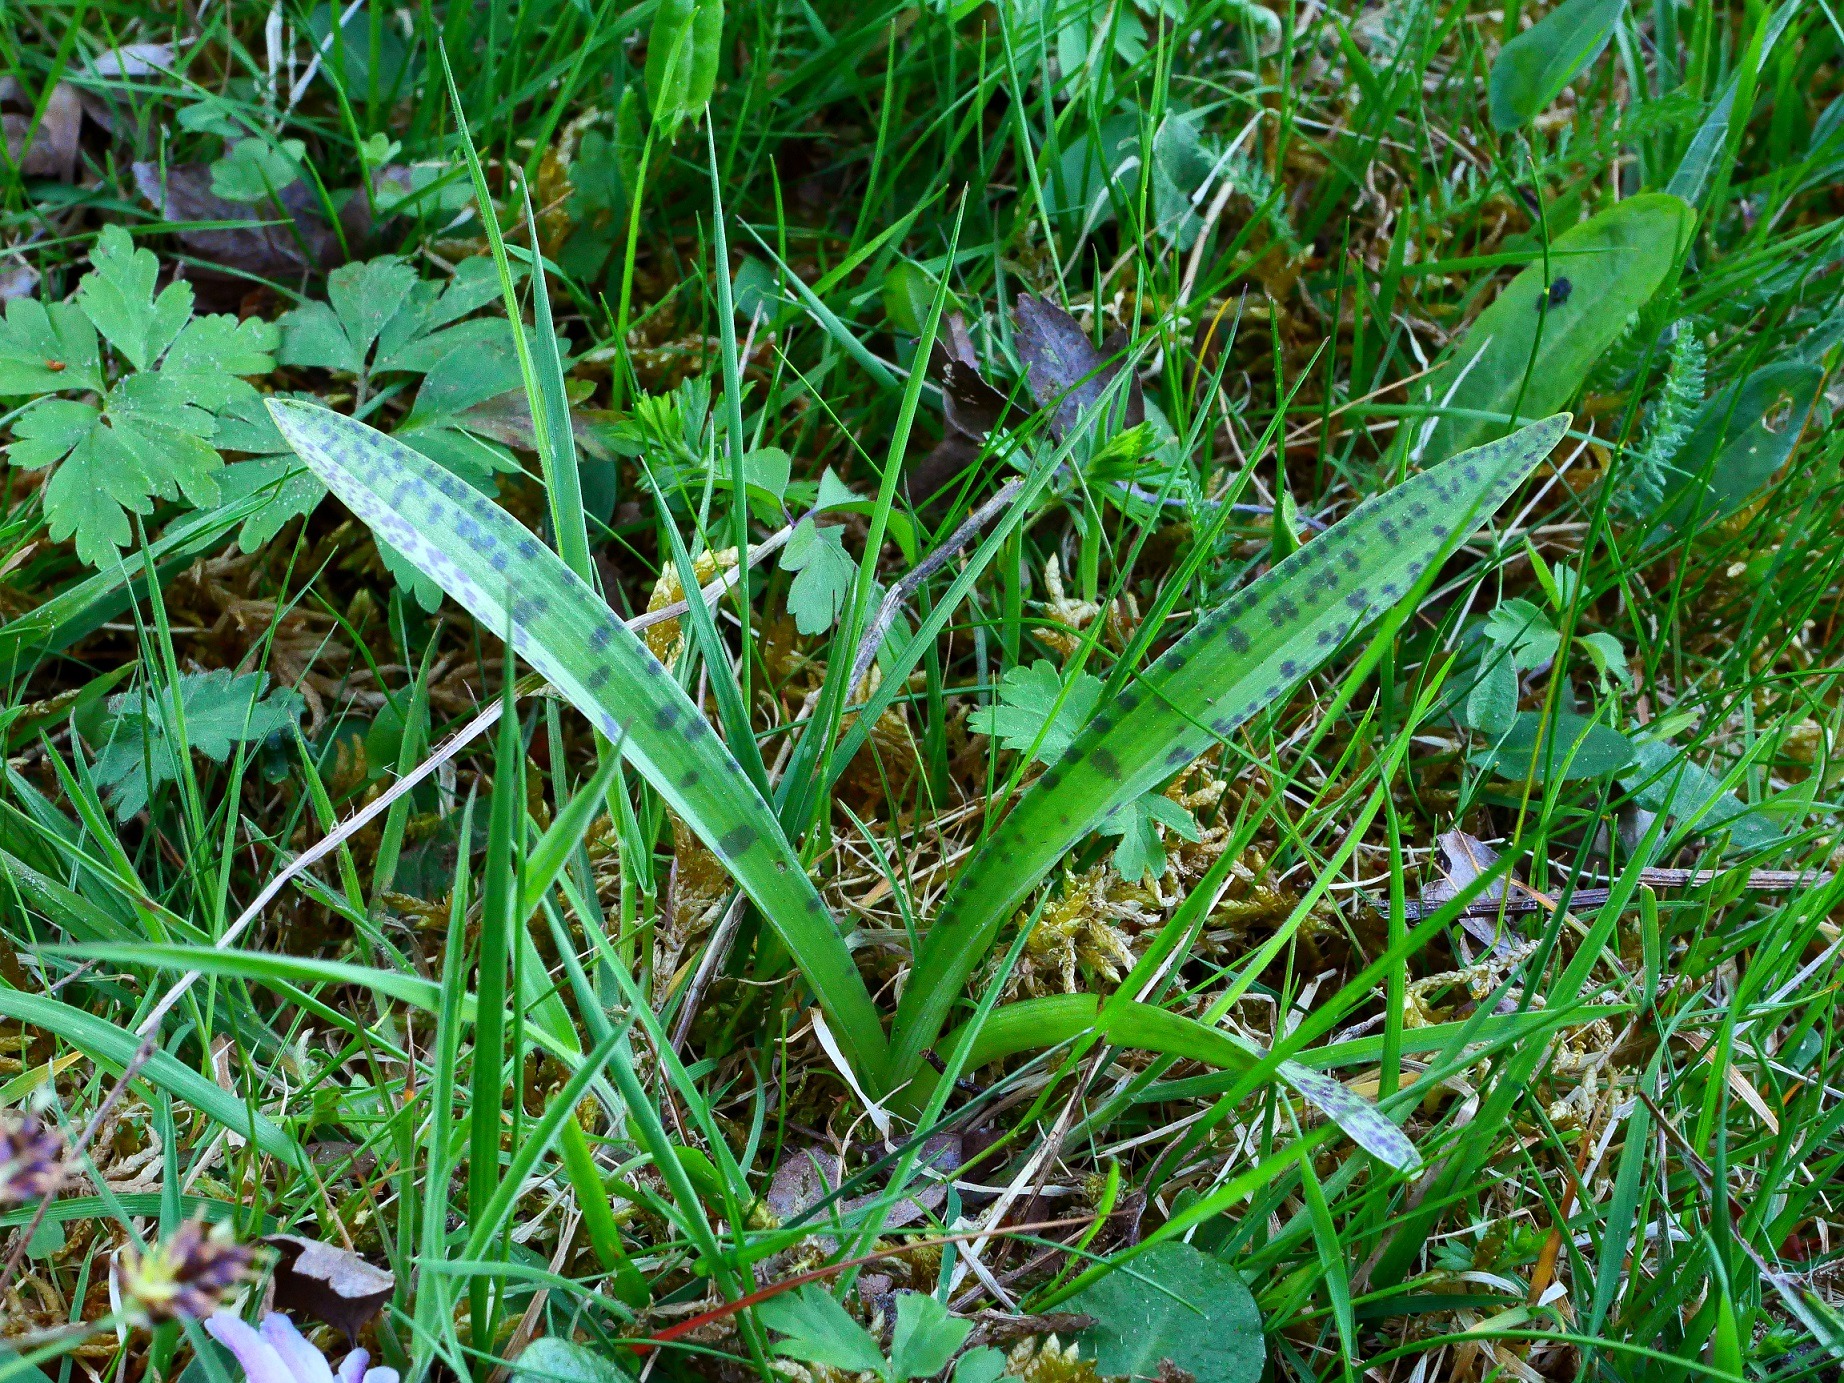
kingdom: Plantae
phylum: Tracheophyta
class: Liliopsida
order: Asparagales
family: Orchidaceae
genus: Dactylorhiza
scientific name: Dactylorhiza maculata
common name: Skov-gøgeurt
